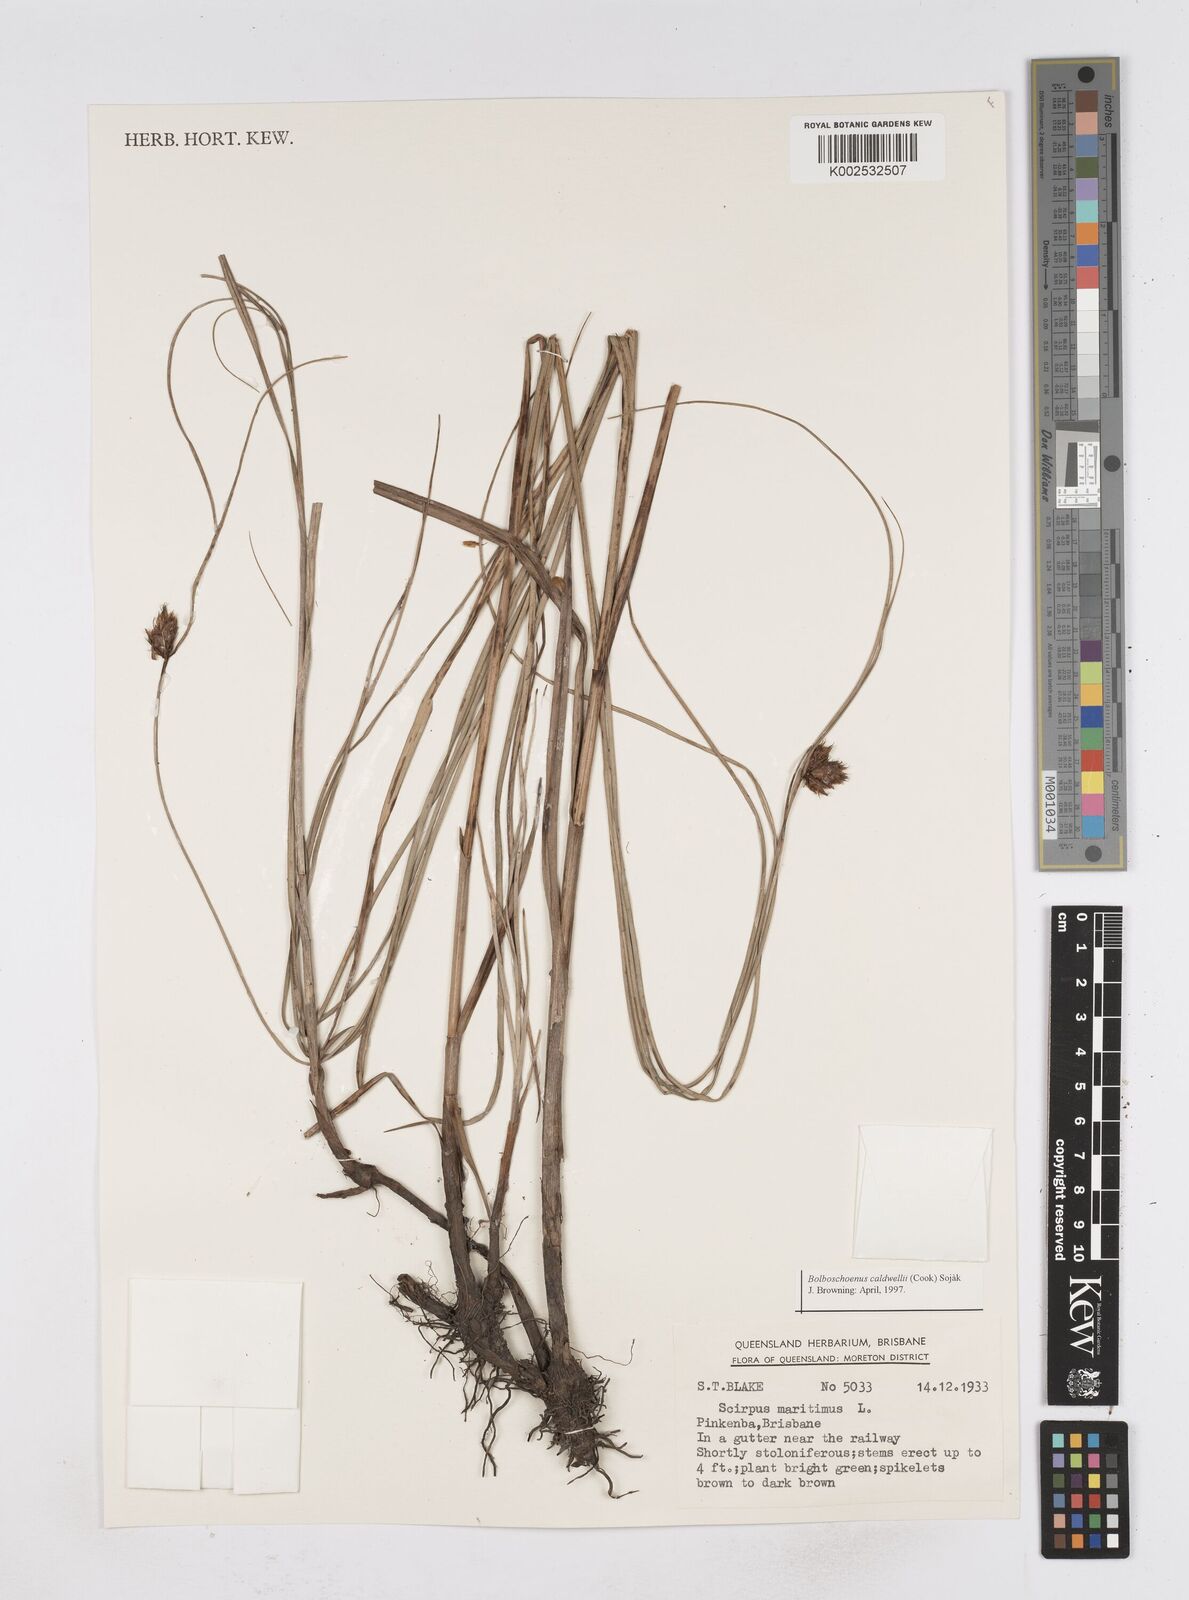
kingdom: Plantae
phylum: Tracheophyta
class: Liliopsida
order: Poales
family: Cyperaceae
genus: Bolboschoenus
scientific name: Bolboschoenus maritimus
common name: Sea club-rush
